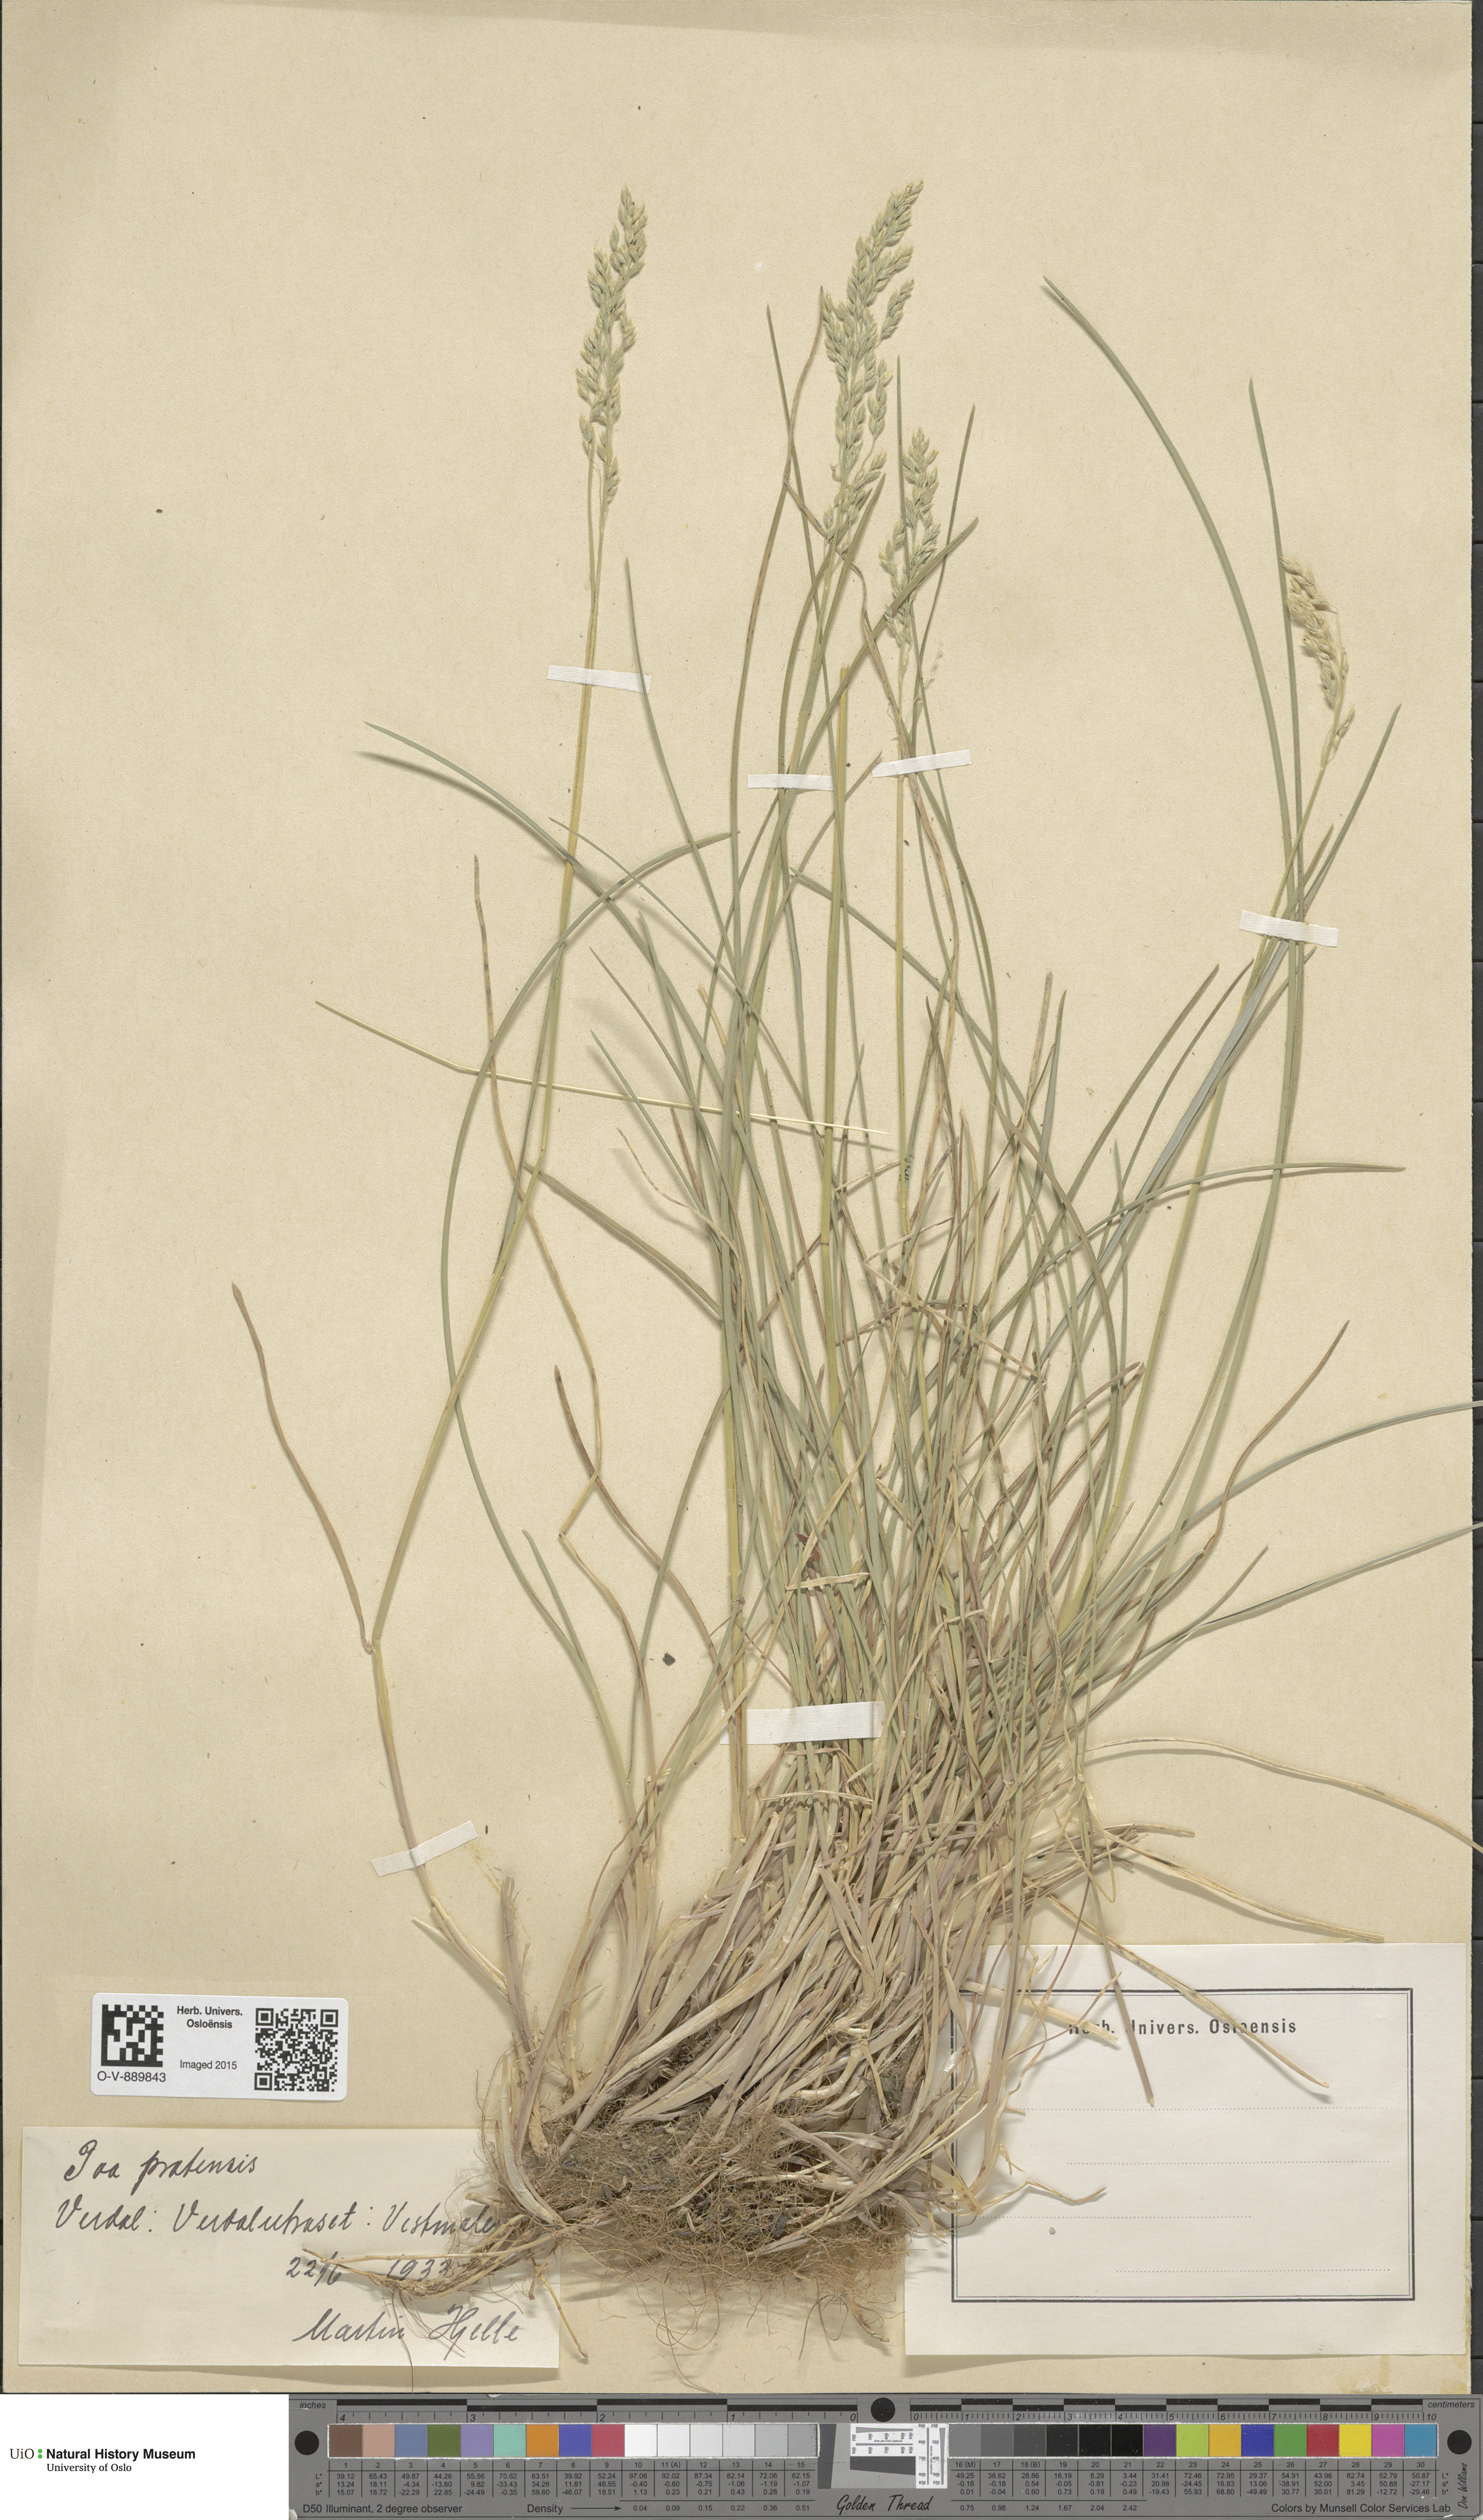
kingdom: Plantae
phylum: Tracheophyta
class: Liliopsida
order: Poales
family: Poaceae
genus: Poa
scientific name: Poa pratensis
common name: Kentucky bluegrass
